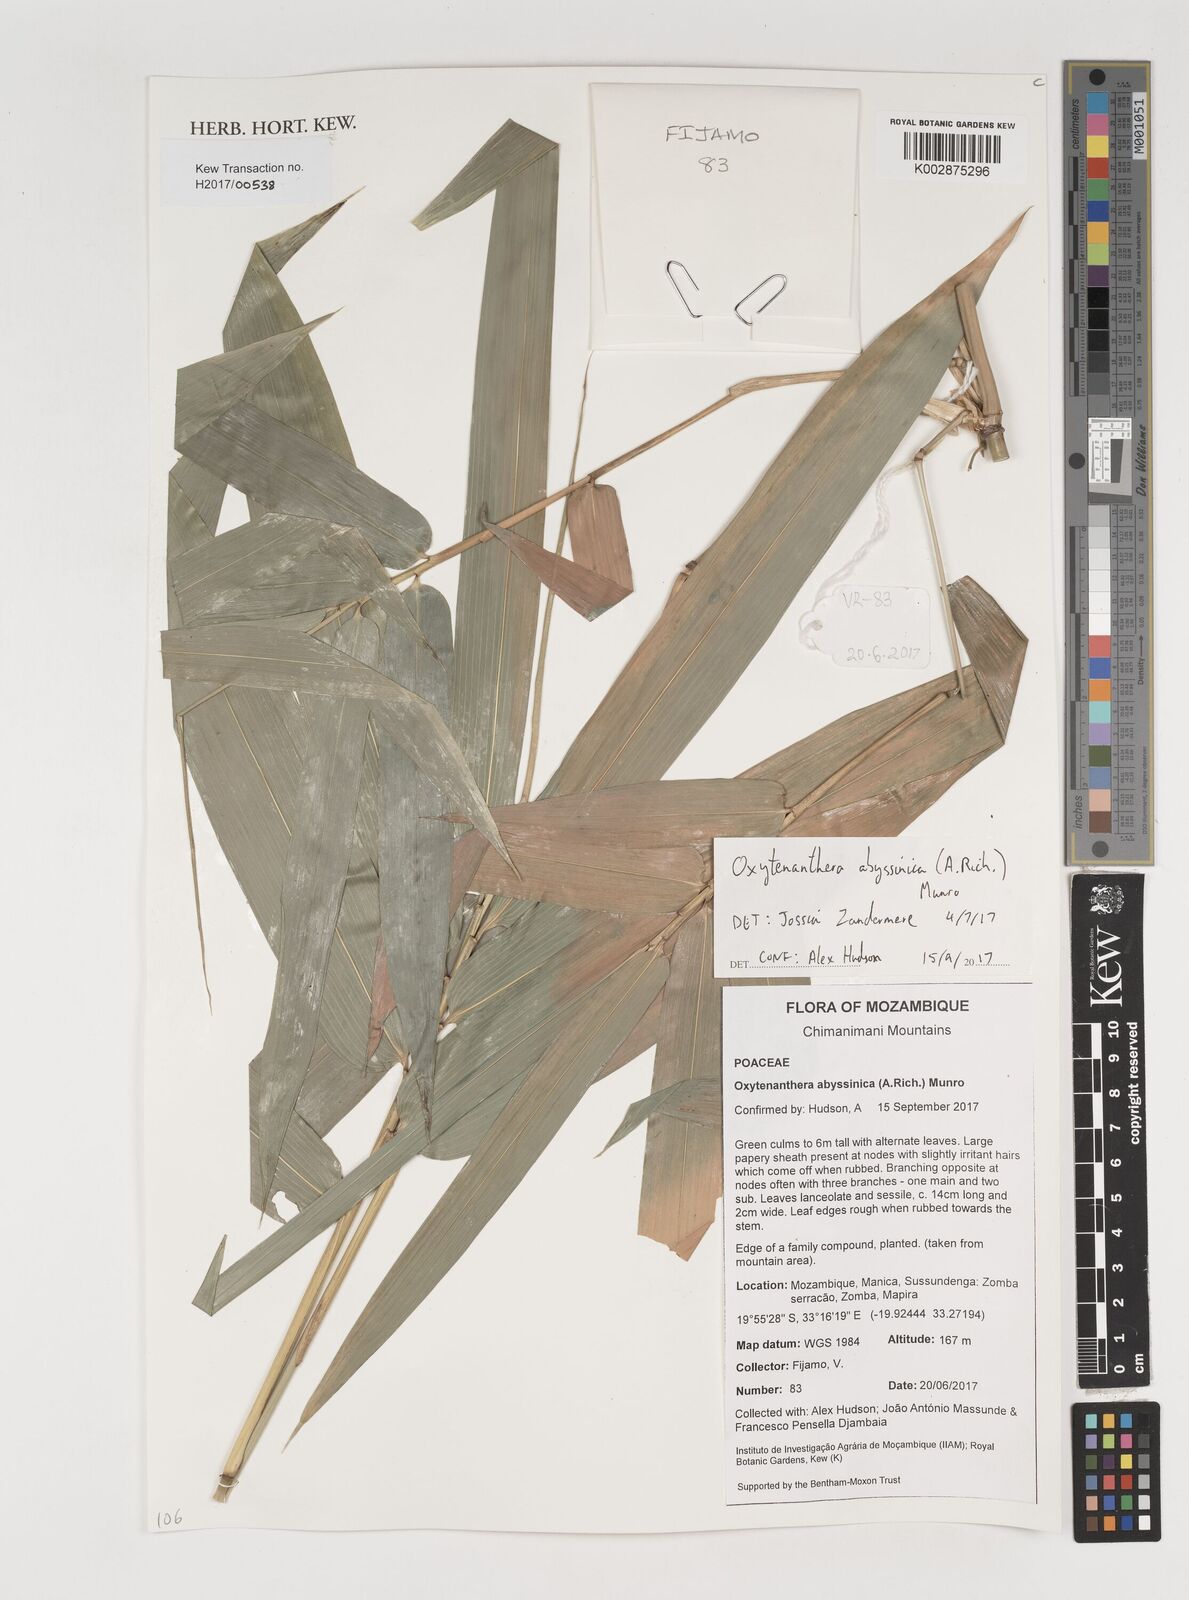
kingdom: Plantae
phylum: Tracheophyta
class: Liliopsida
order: Poales
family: Poaceae
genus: Oxytenanthera
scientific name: Oxytenanthera abyssinica
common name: Wine bamboo
